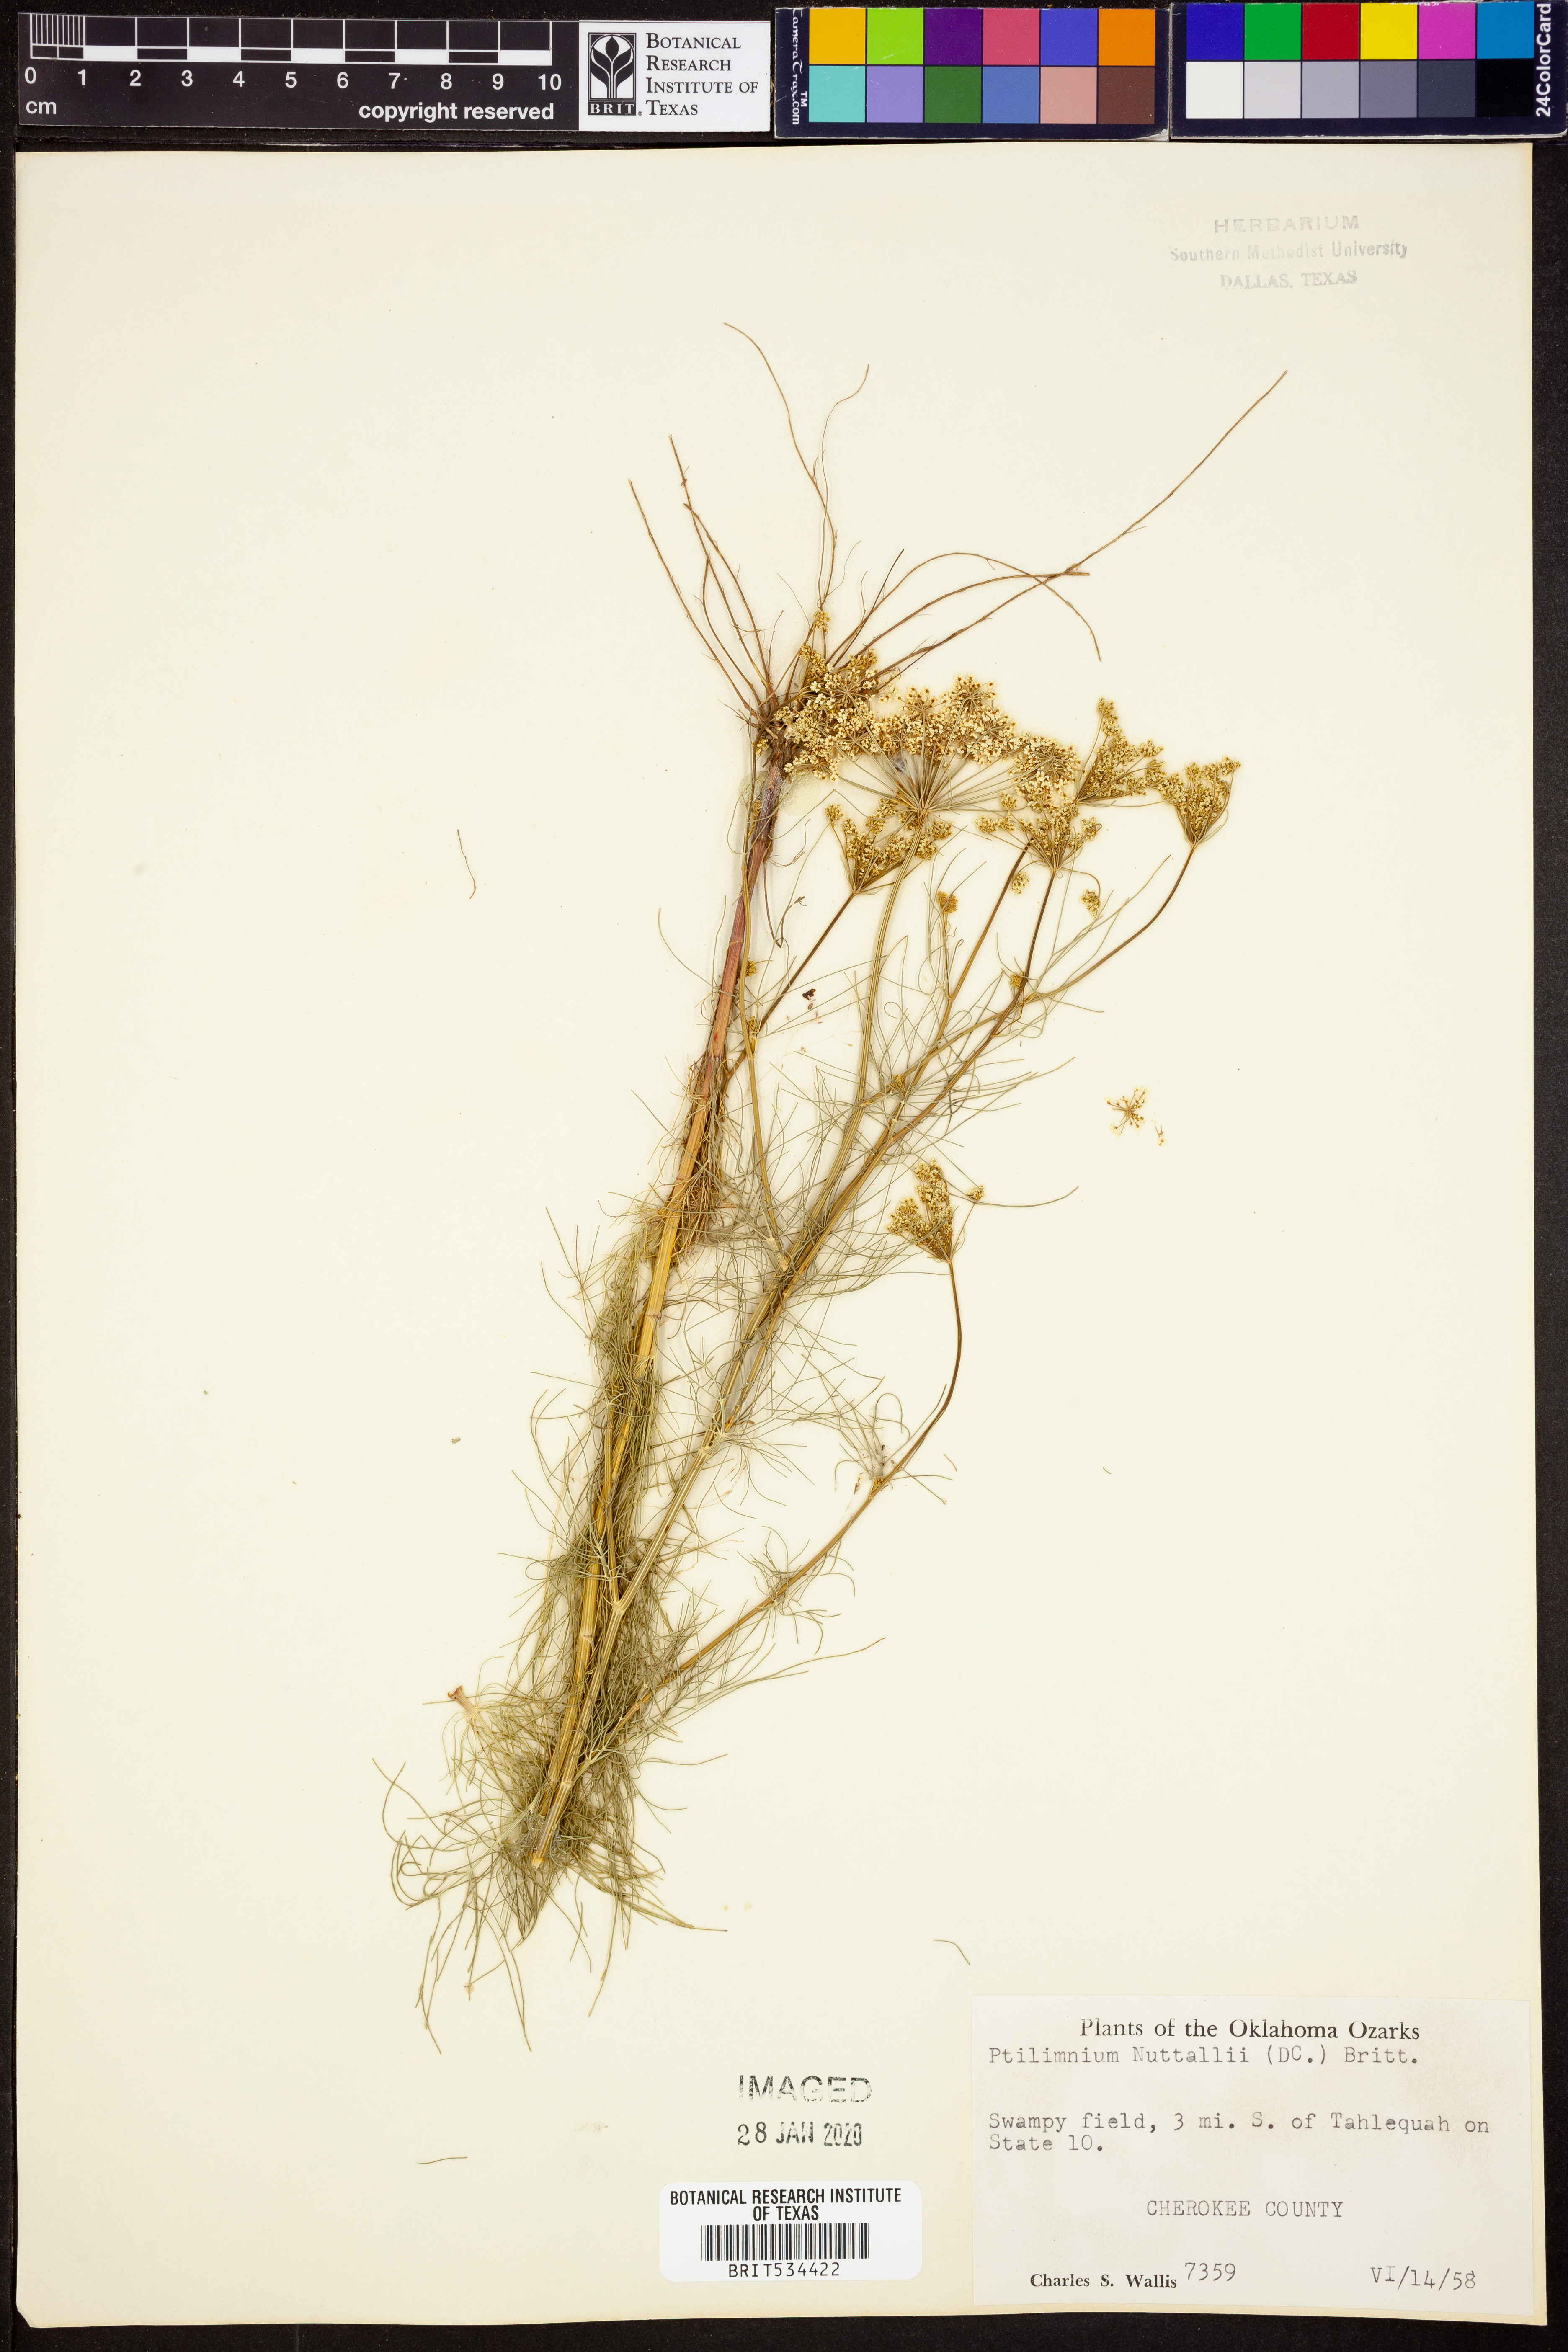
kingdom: Plantae
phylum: Tracheophyta
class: Magnoliopsida
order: Apiales
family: Apiaceae
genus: Ptilimnium
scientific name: Ptilimnium nuttallii
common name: Ozark bishop's-weed
